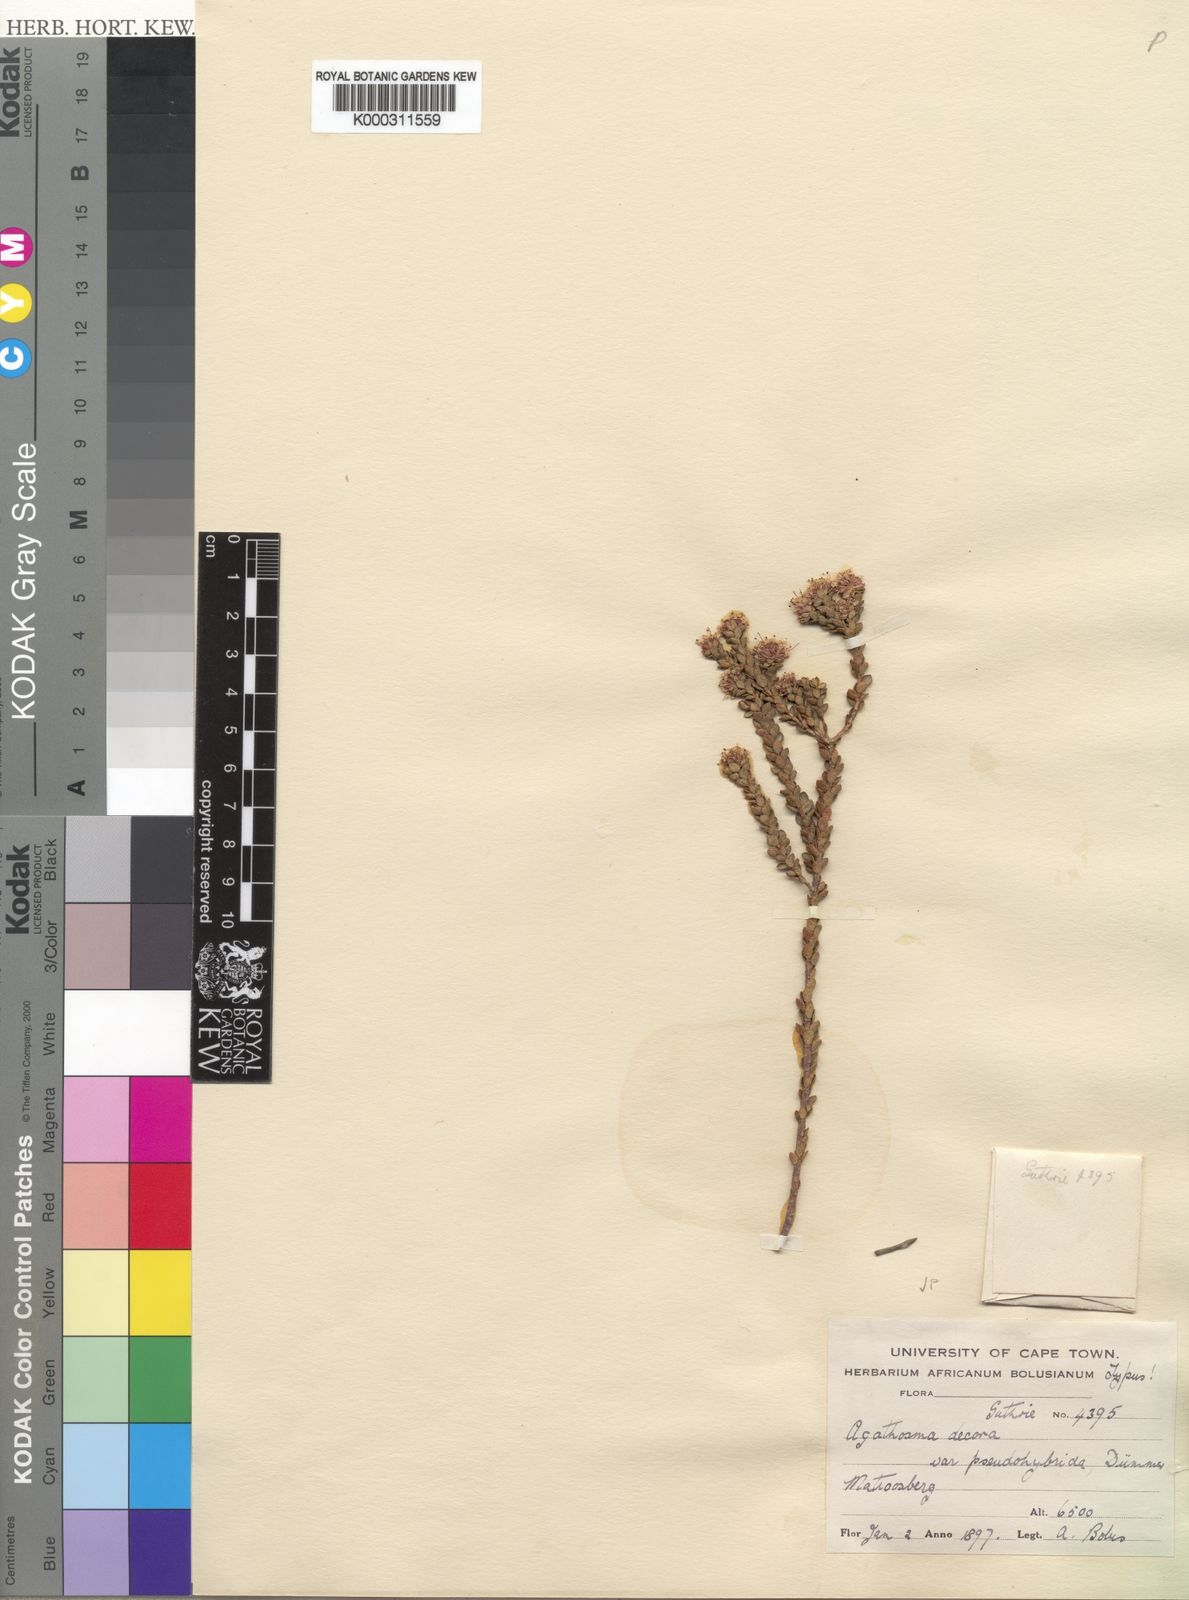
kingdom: Plantae
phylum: Tracheophyta
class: Magnoliopsida
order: Sapindales
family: Rutaceae
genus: Agathosma
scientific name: Agathosma pentachotoma
